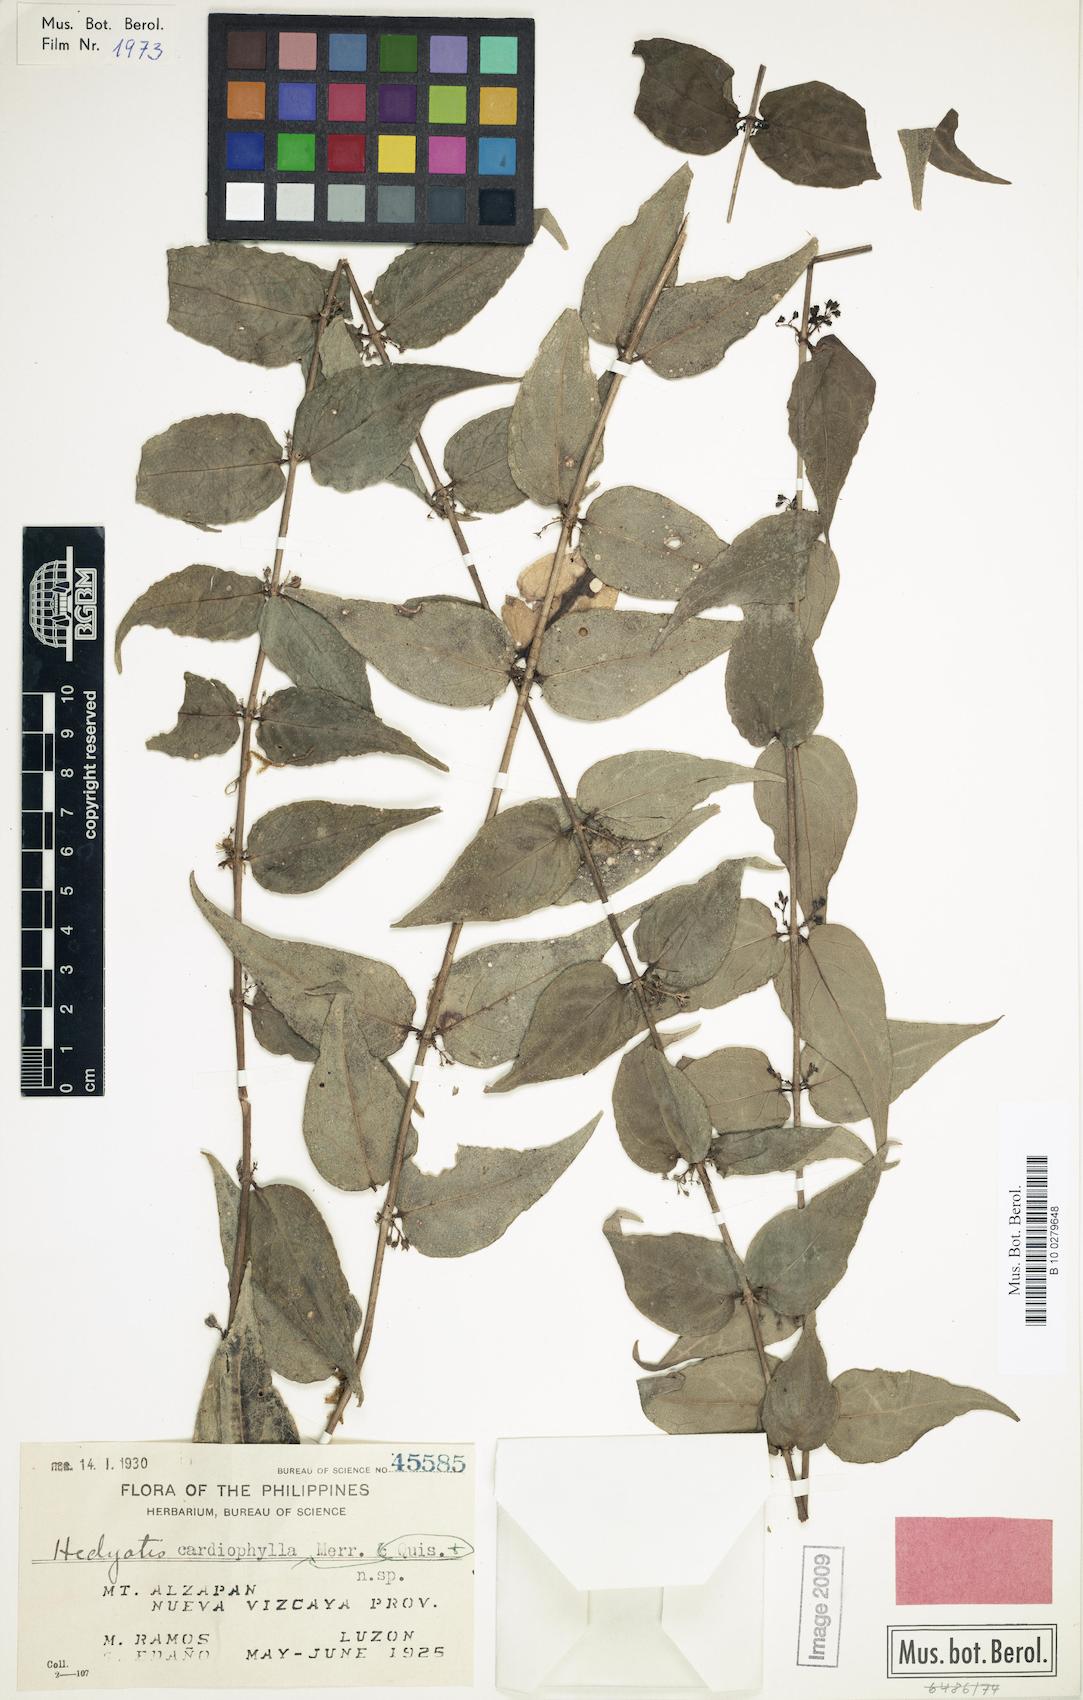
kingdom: Plantae
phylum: Tracheophyta
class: Magnoliopsida
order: Gentianales
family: Rubiaceae
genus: Hedyotis
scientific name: Hedyotis cardiophylla
